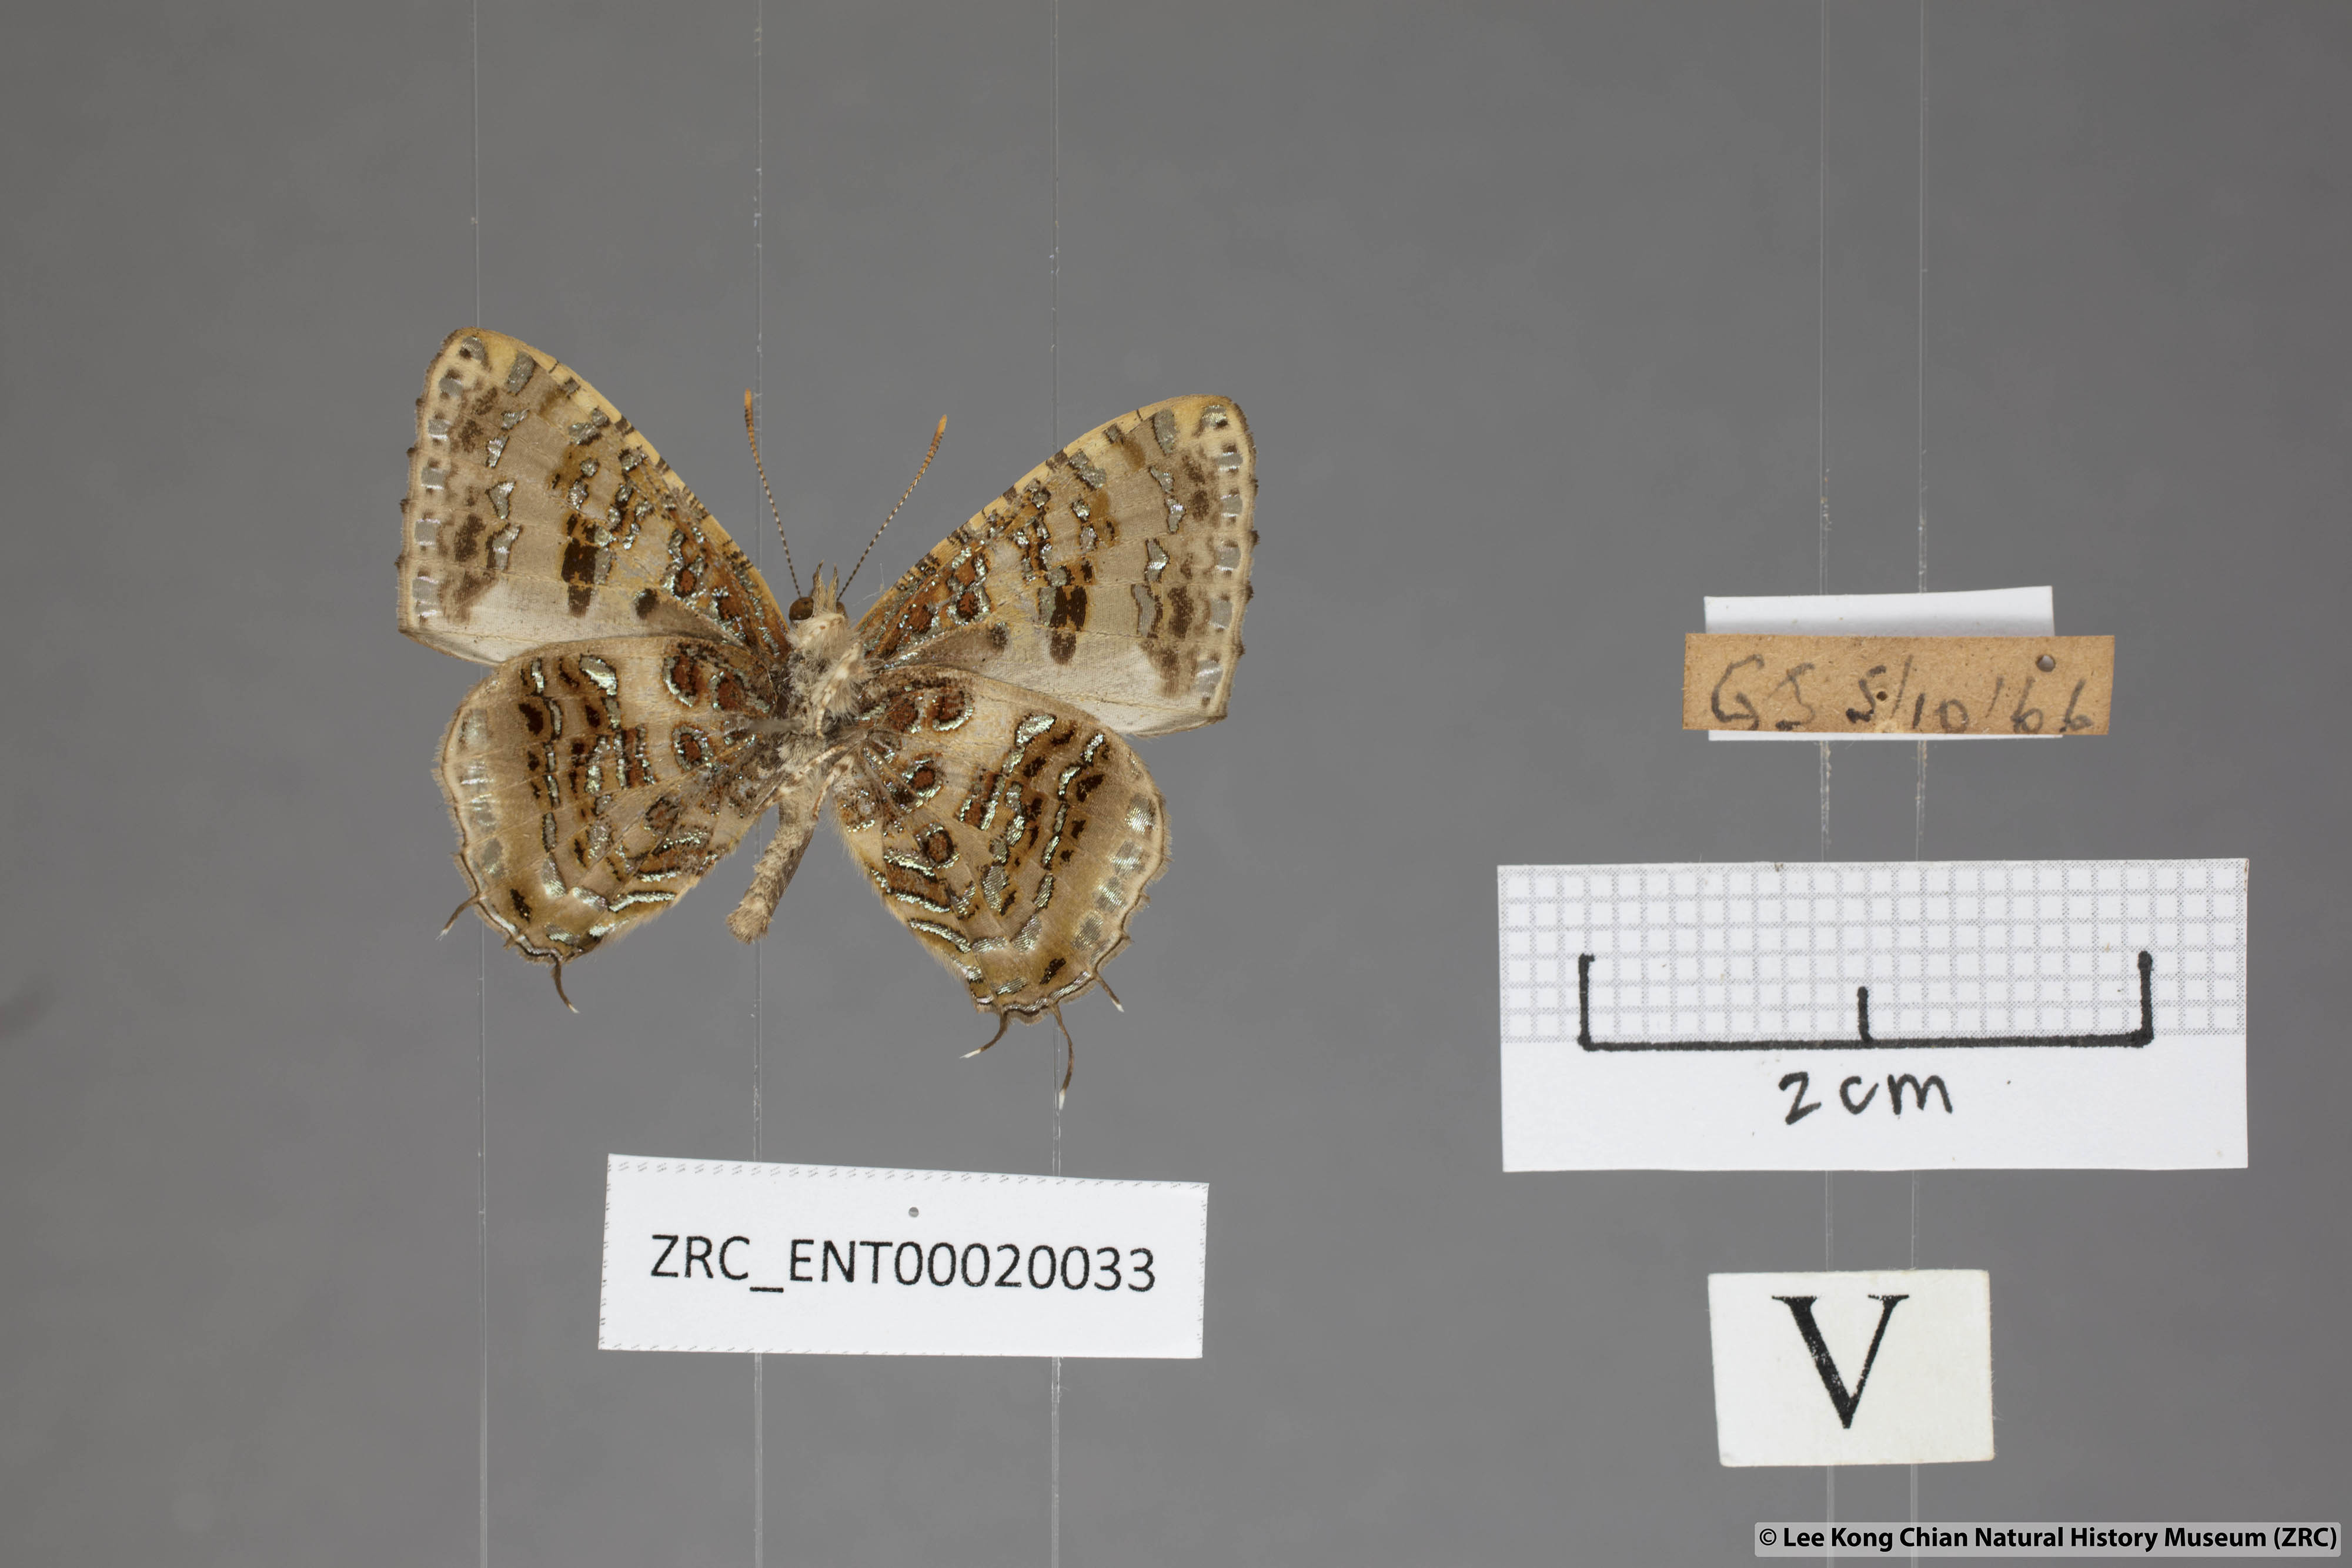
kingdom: Animalia
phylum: Arthropoda
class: Insecta
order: Lepidoptera
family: Lycaenidae
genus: Catapaecilma
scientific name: Catapaecilma major
